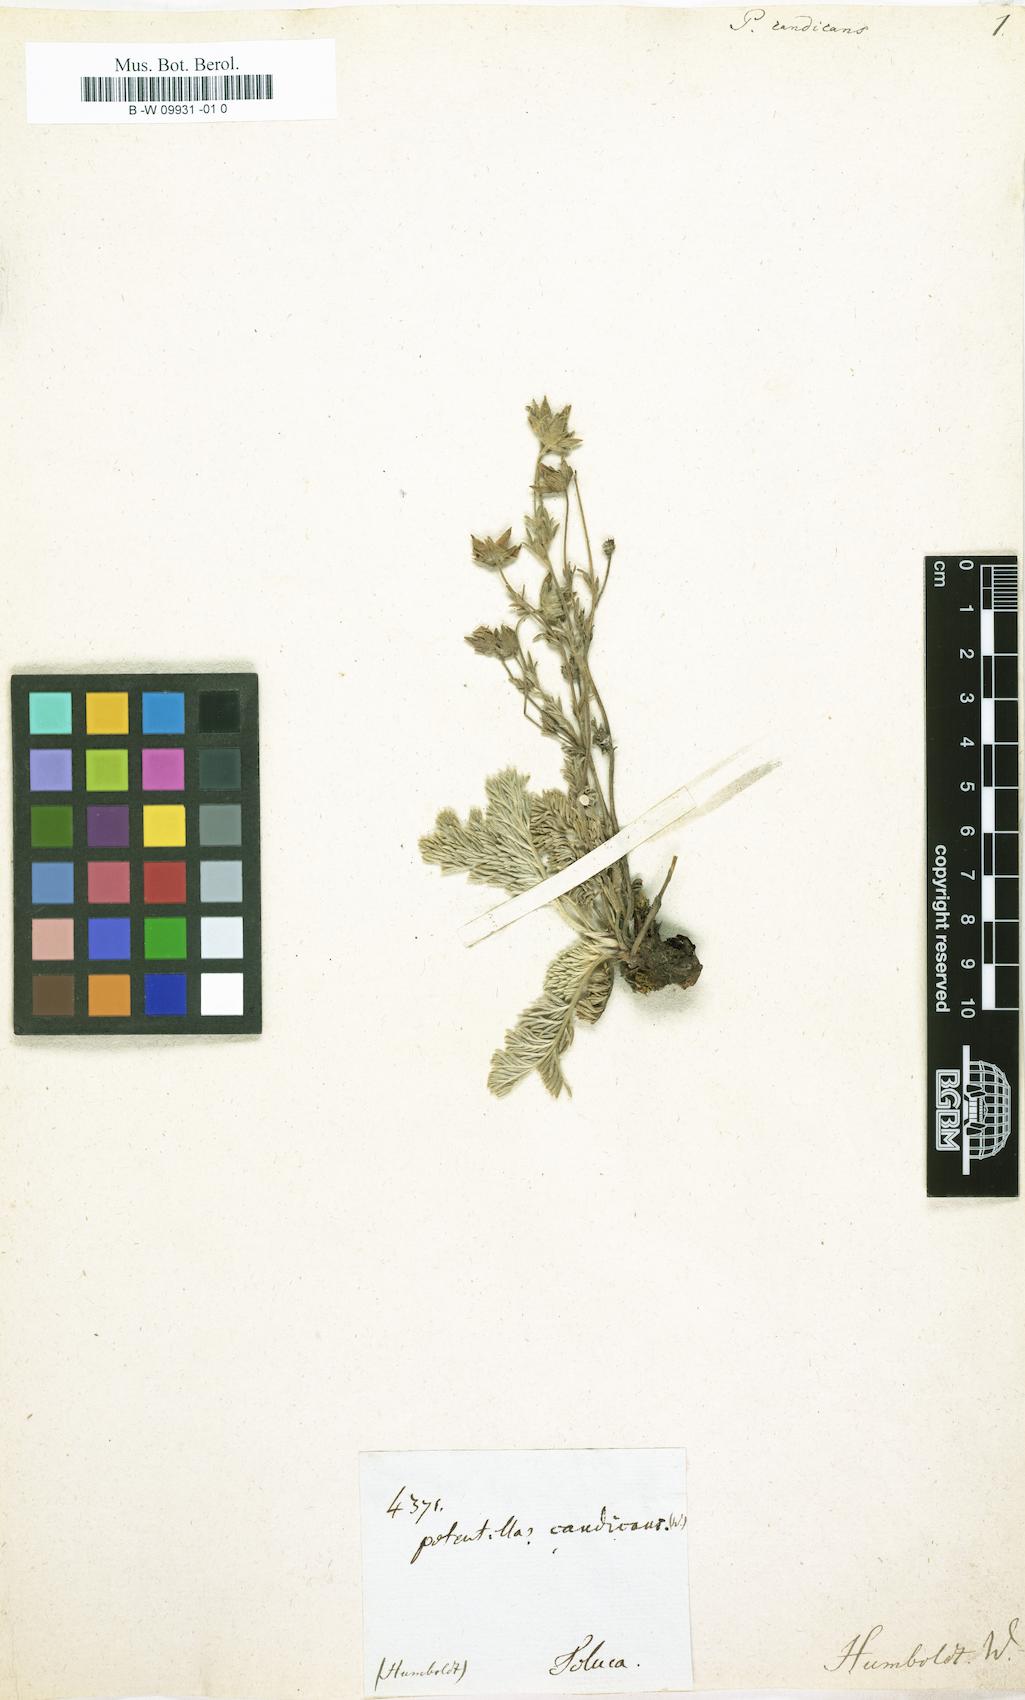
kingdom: Plantae
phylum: Tracheophyta
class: Magnoliopsida
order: Rosales
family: Rosaceae
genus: Potentilla
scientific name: Potentilla candicans
